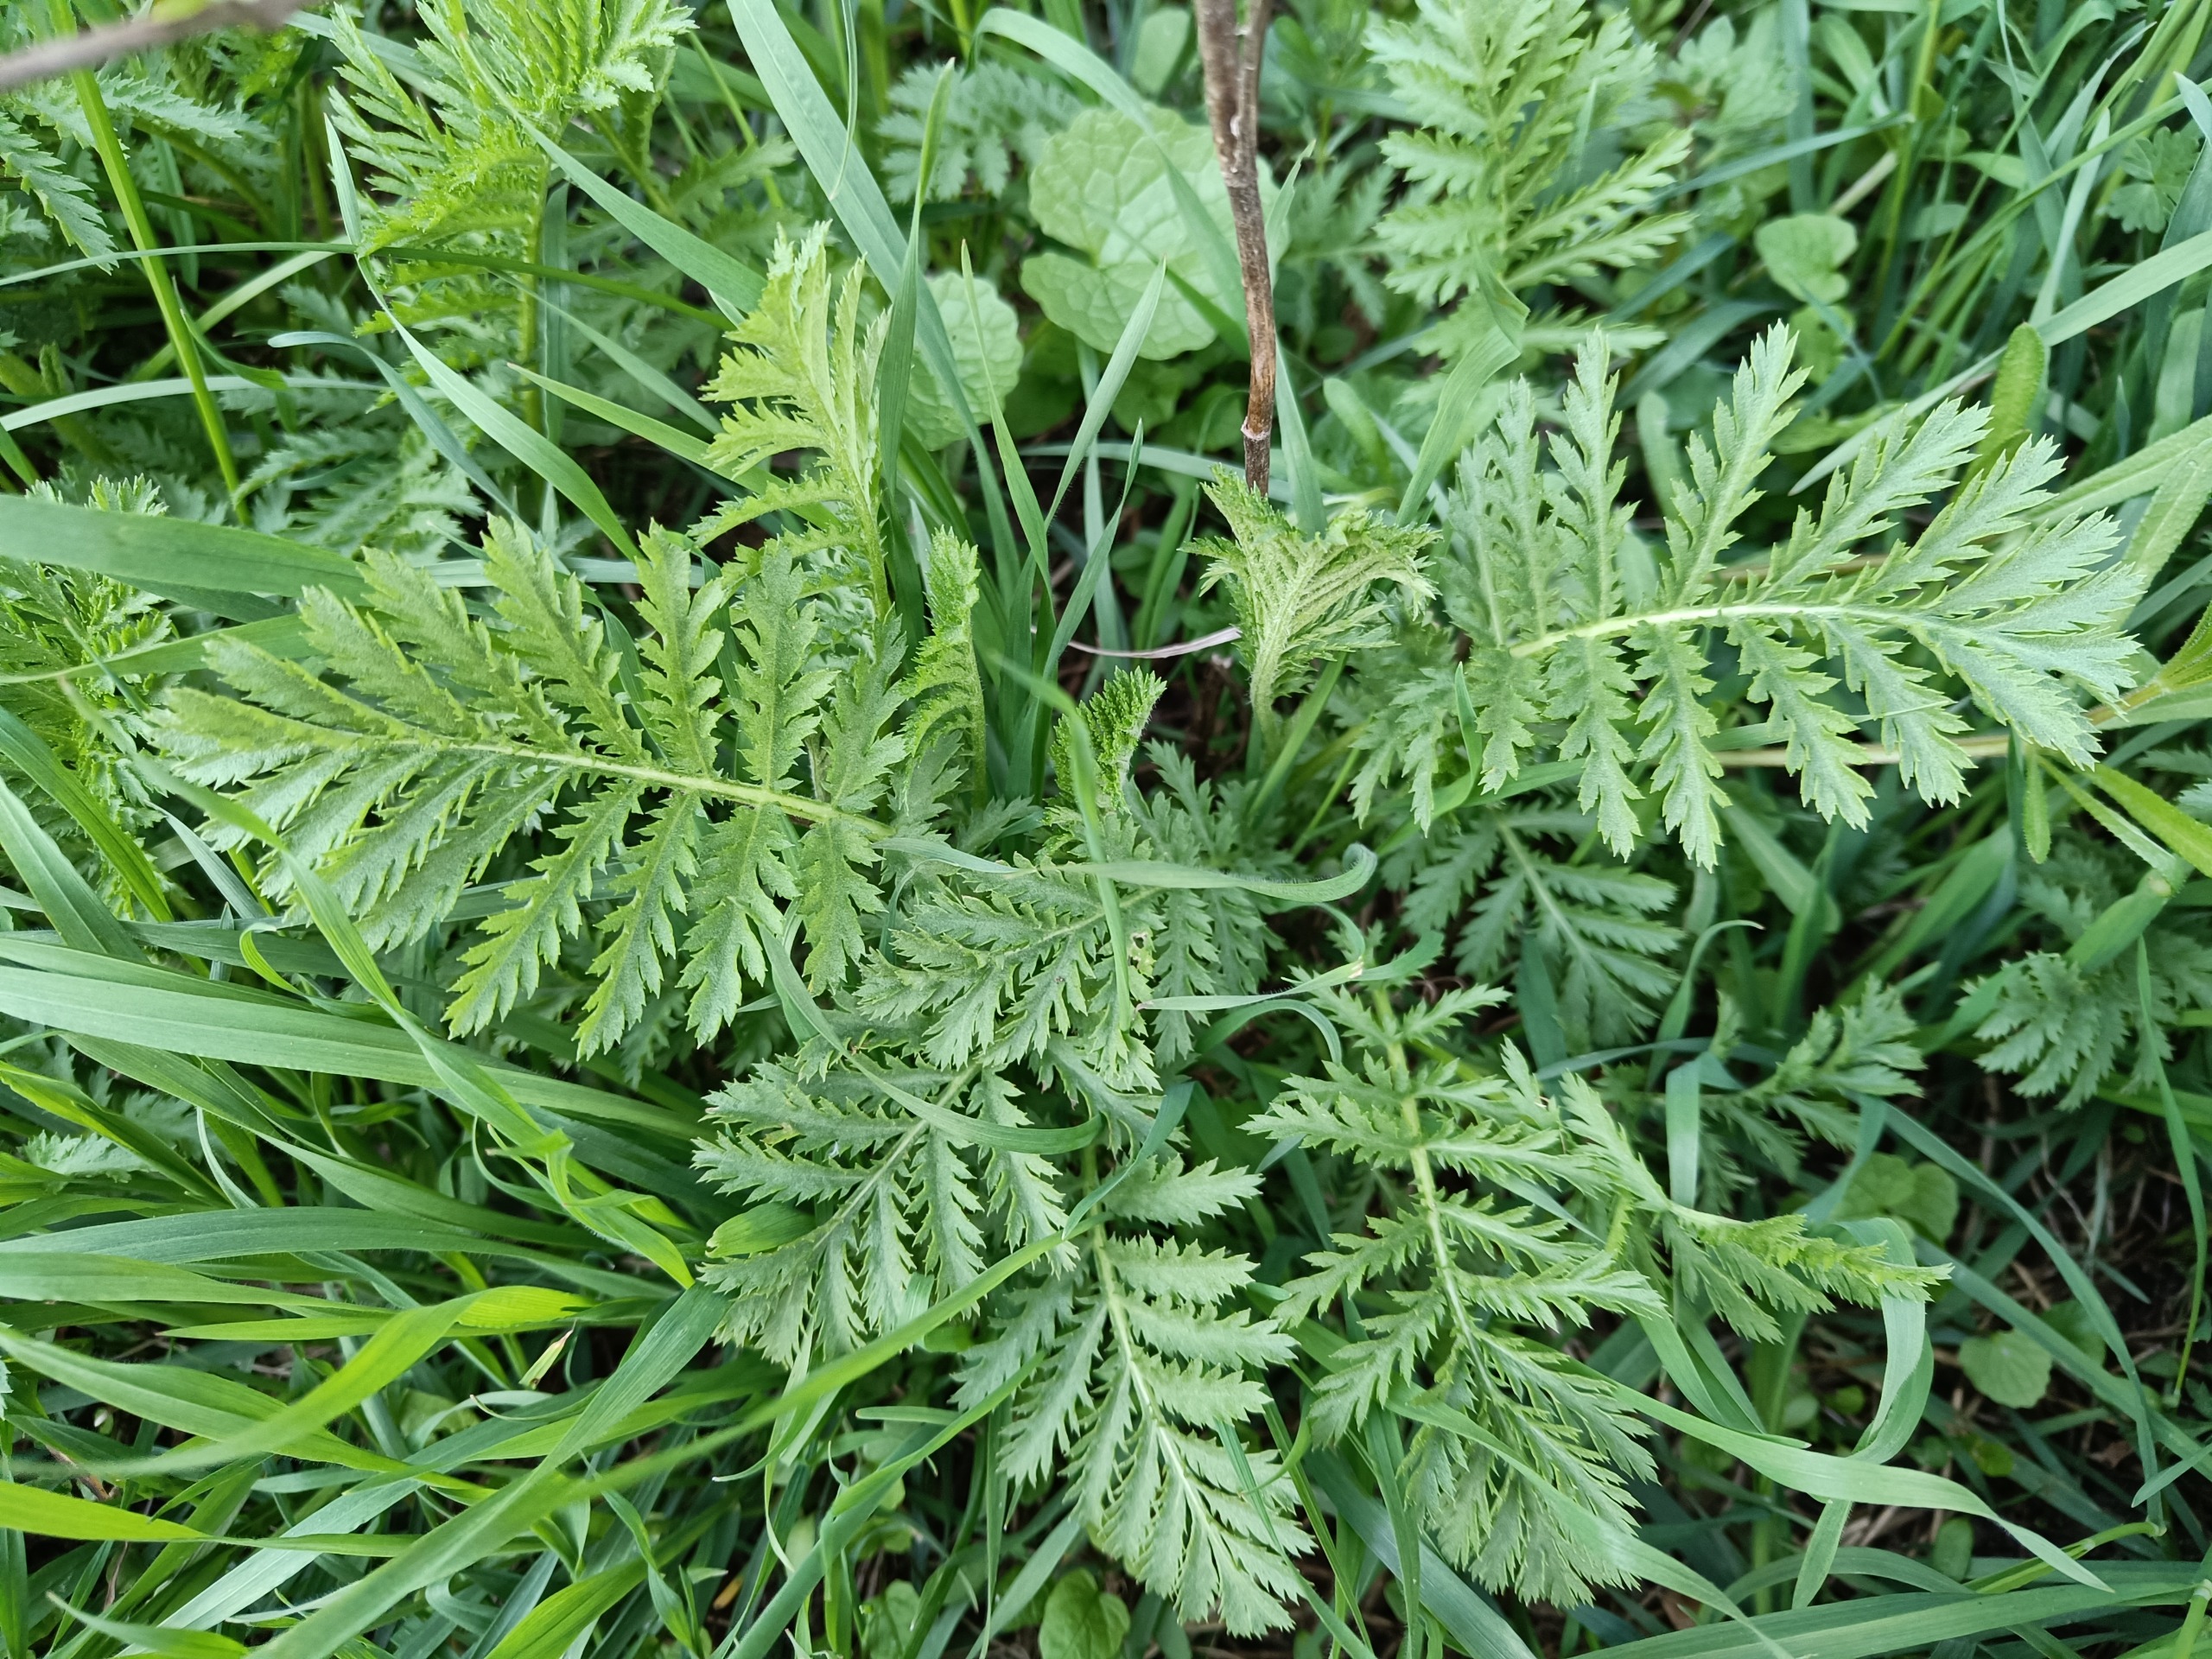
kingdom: Plantae
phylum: Tracheophyta
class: Magnoliopsida
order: Asterales
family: Asteraceae
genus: Tanacetum
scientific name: Tanacetum vulgare
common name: Rejnfan
